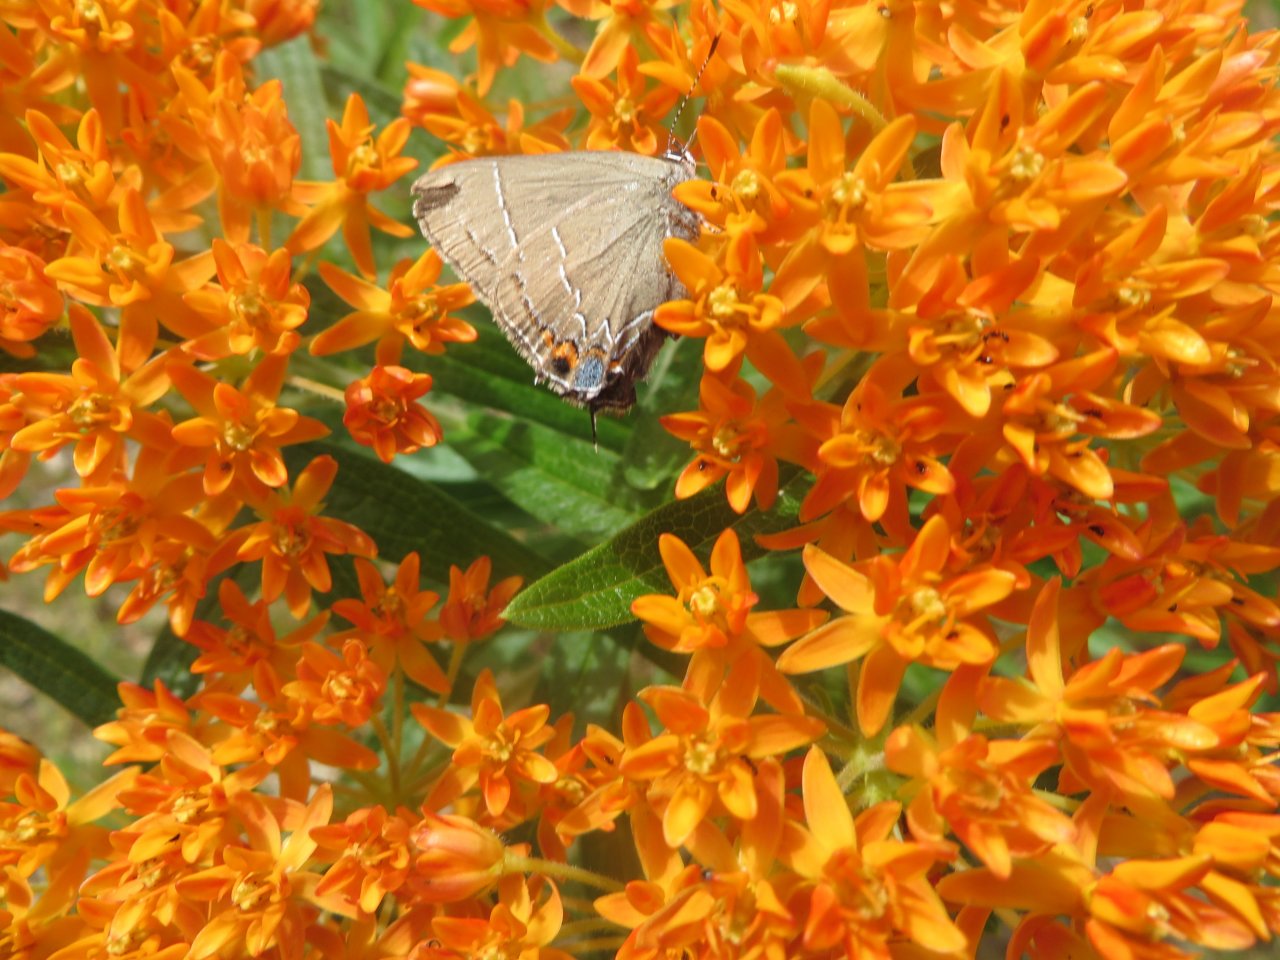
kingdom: Animalia
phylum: Arthropoda
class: Insecta
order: Lepidoptera
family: Lycaenidae
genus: Fixsenia
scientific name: Fixsenia favonius
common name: Oak Hairstreak
